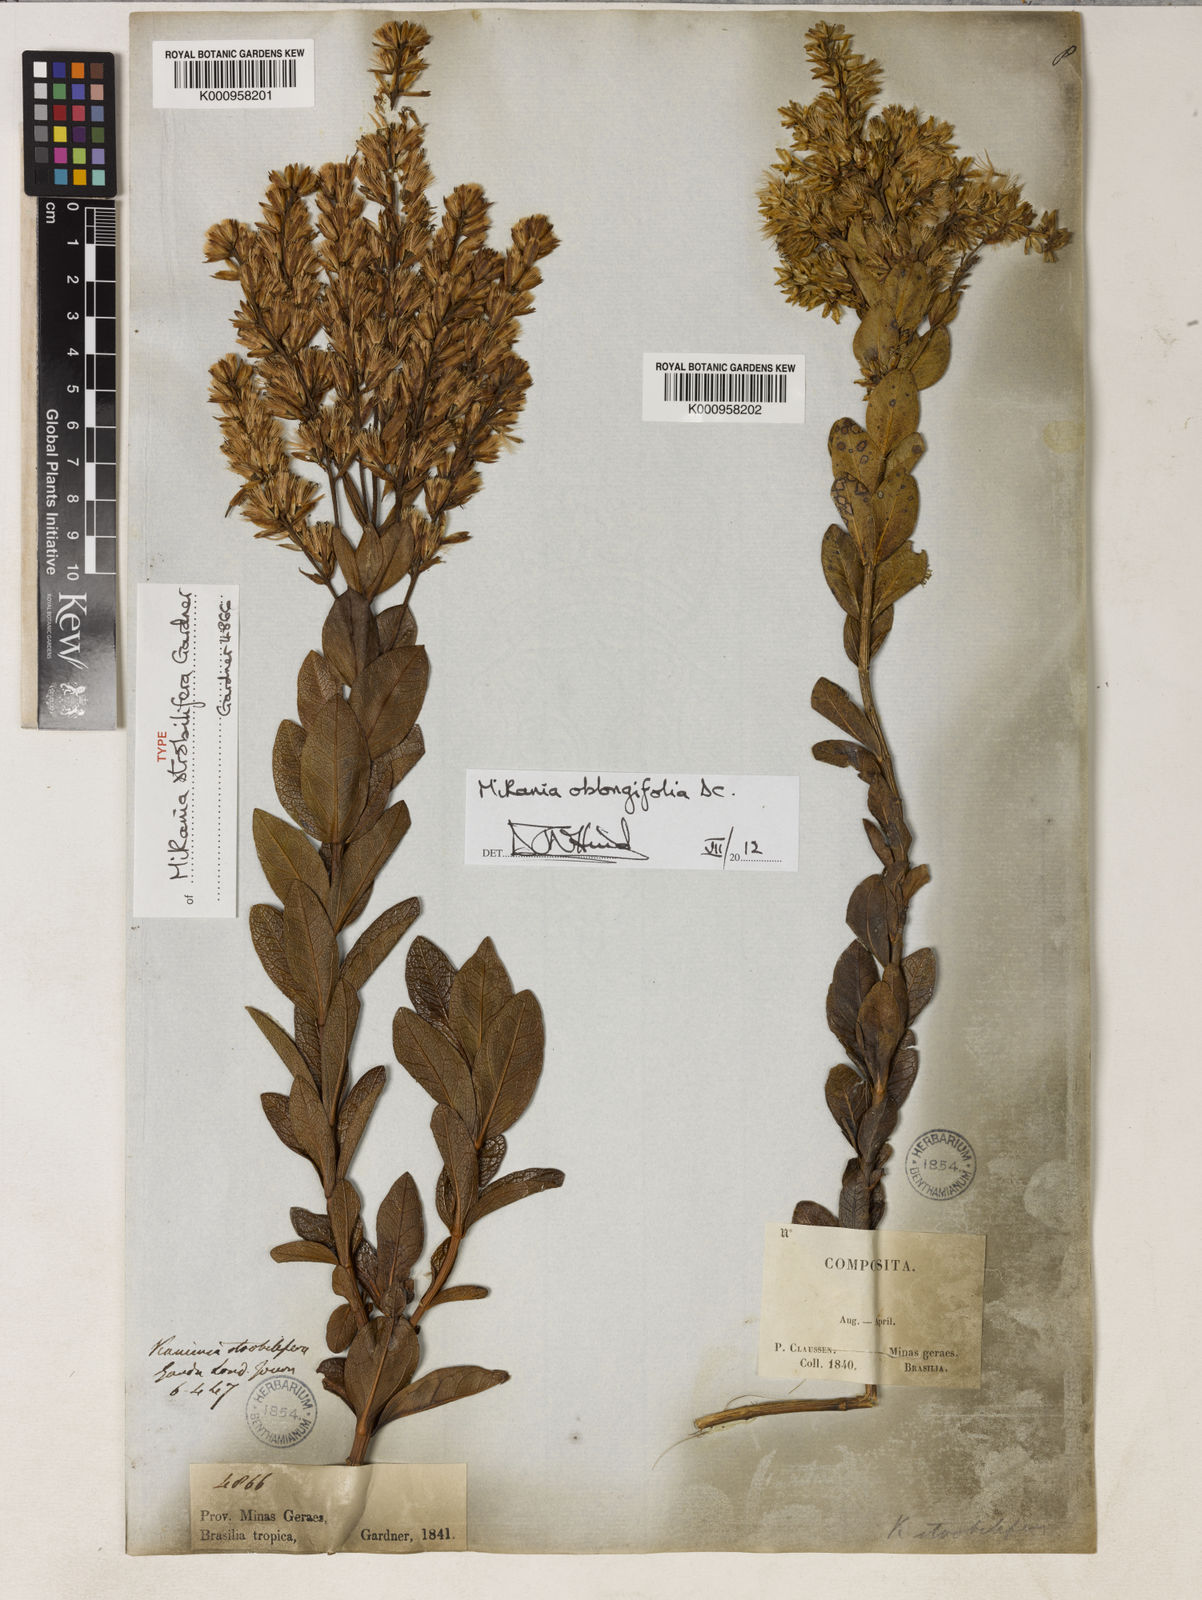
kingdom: Plantae
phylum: Tracheophyta
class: Magnoliopsida
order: Asterales
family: Asteraceae
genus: Mikania
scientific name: Mikania oblongifolia
